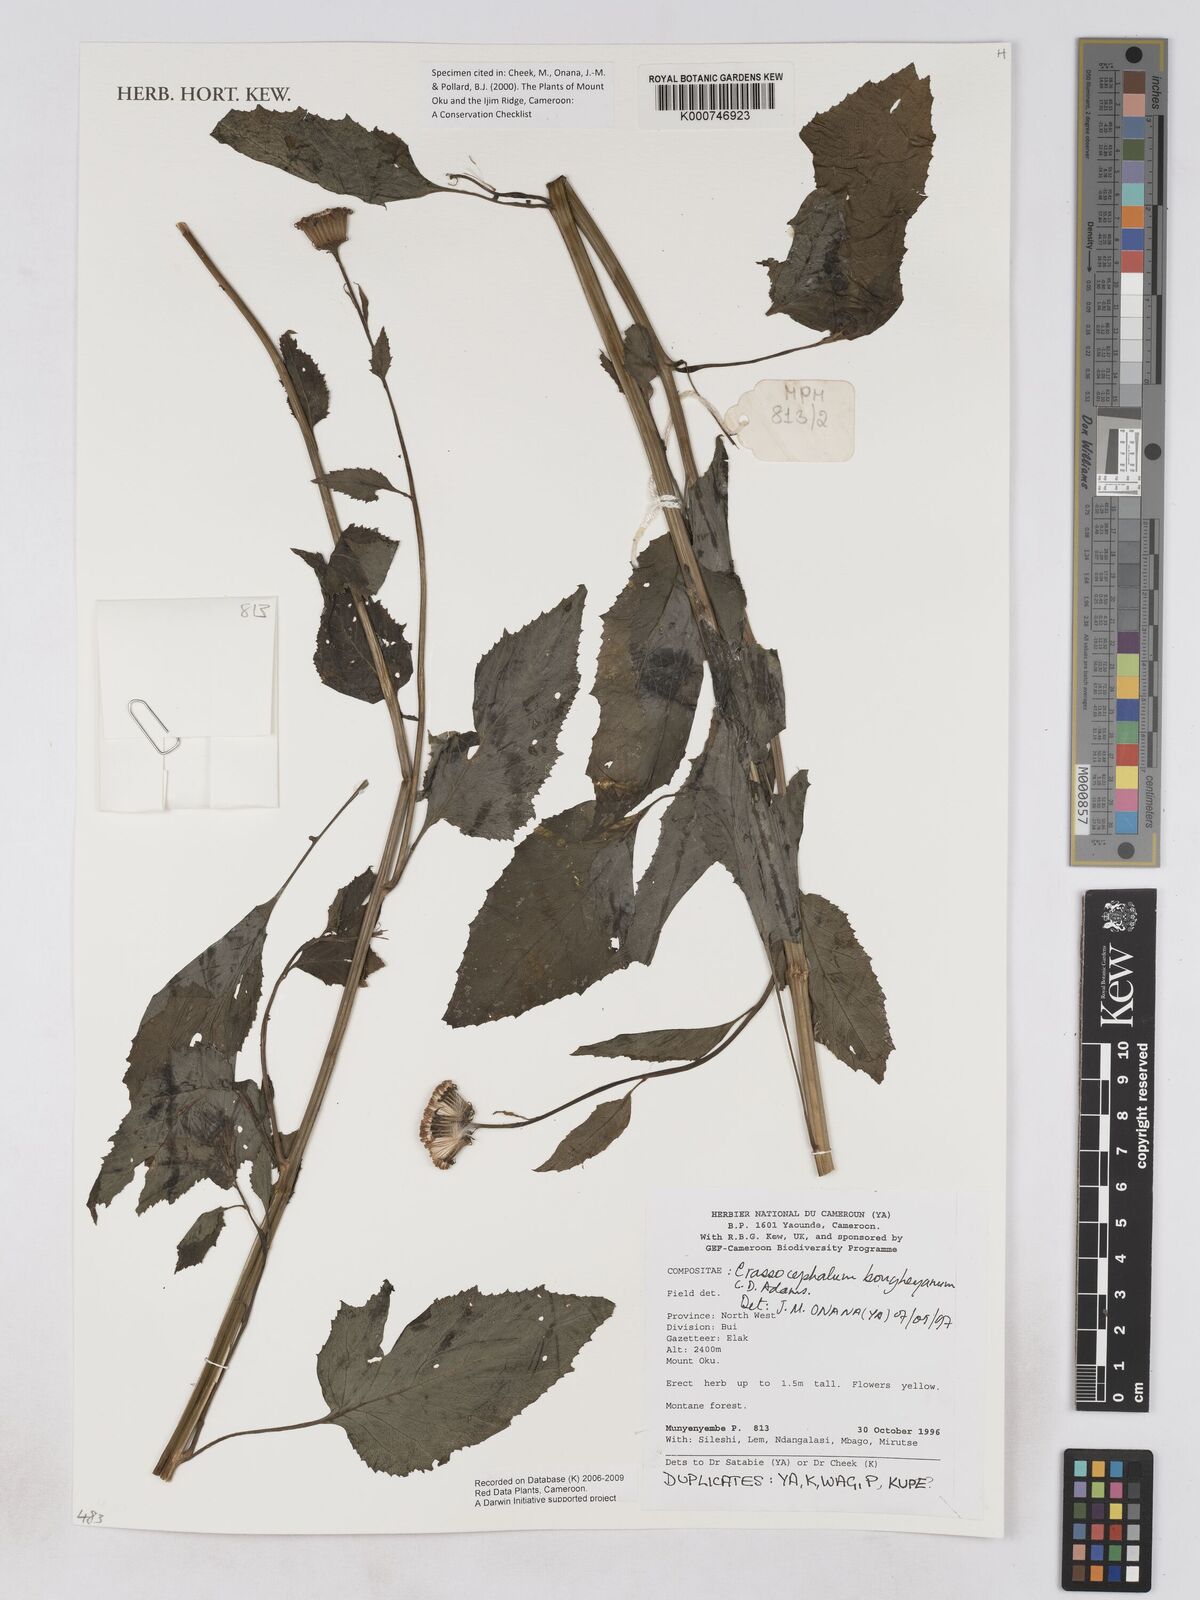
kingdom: Plantae
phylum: Tracheophyta
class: Magnoliopsida
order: Asterales
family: Asteraceae
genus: Crassocephalum
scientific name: Crassocephalum bougheyanum
